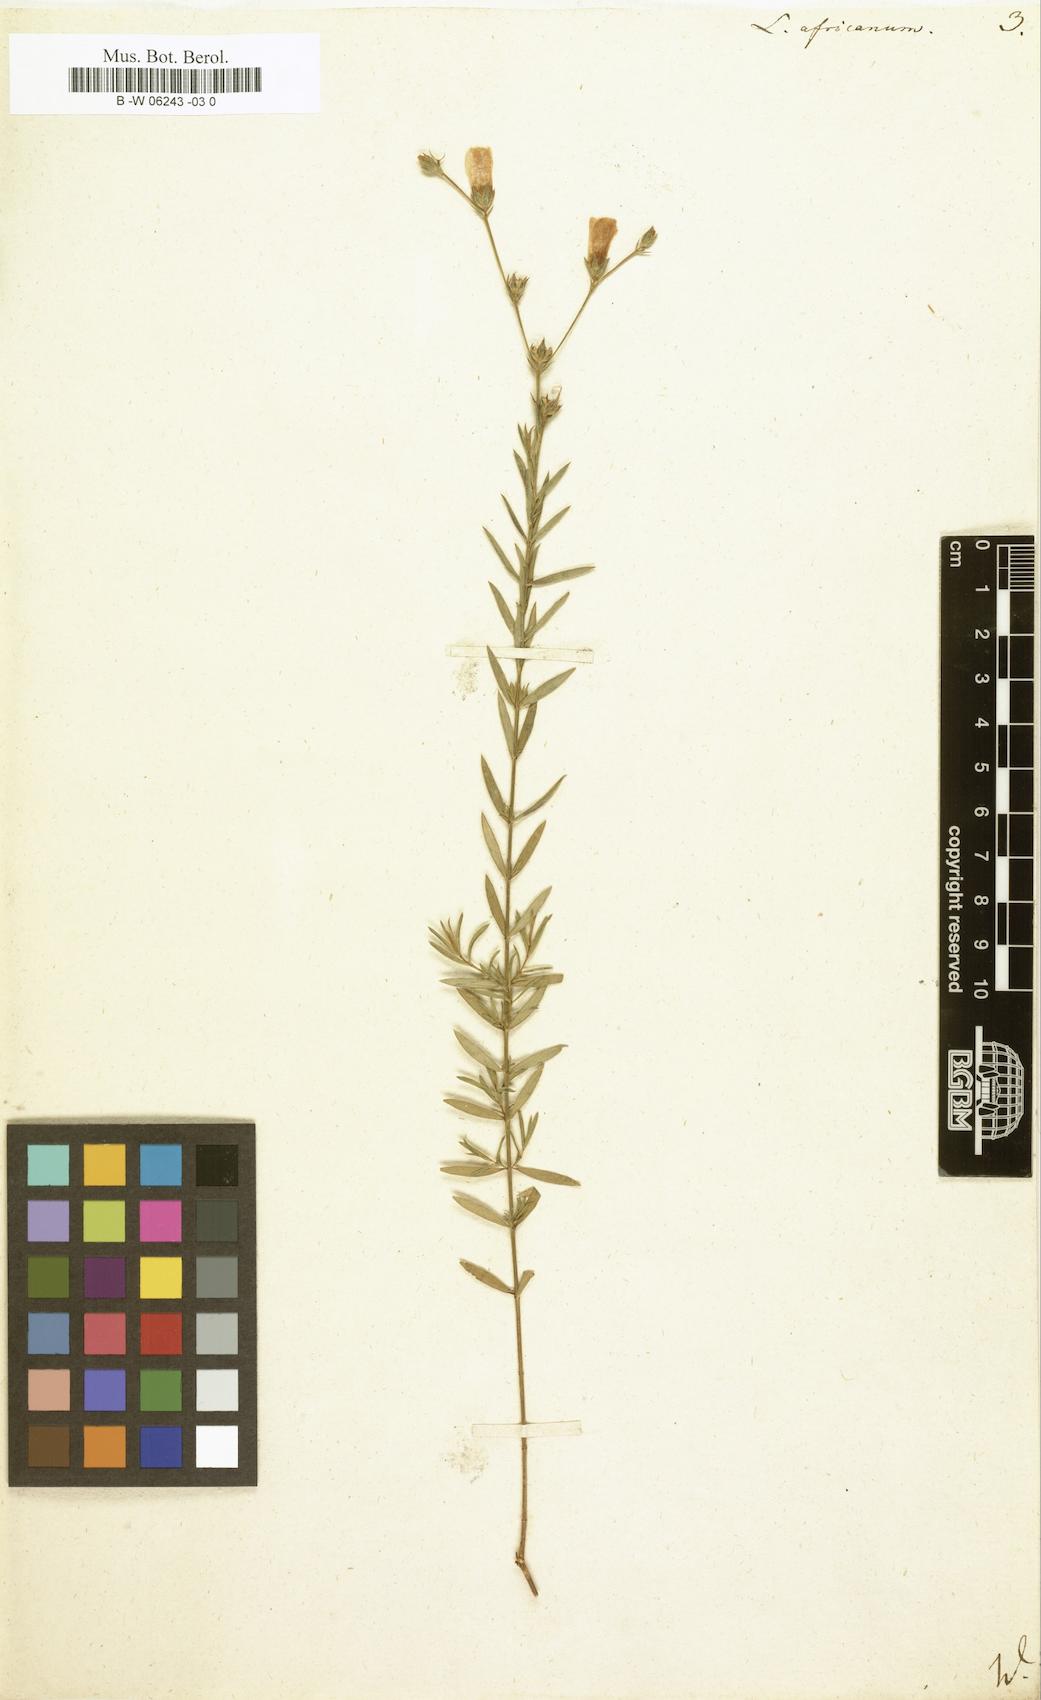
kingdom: Plantae
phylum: Tracheophyta
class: Magnoliopsida
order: Malpighiales
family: Linaceae
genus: Linum
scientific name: Linum africanum
